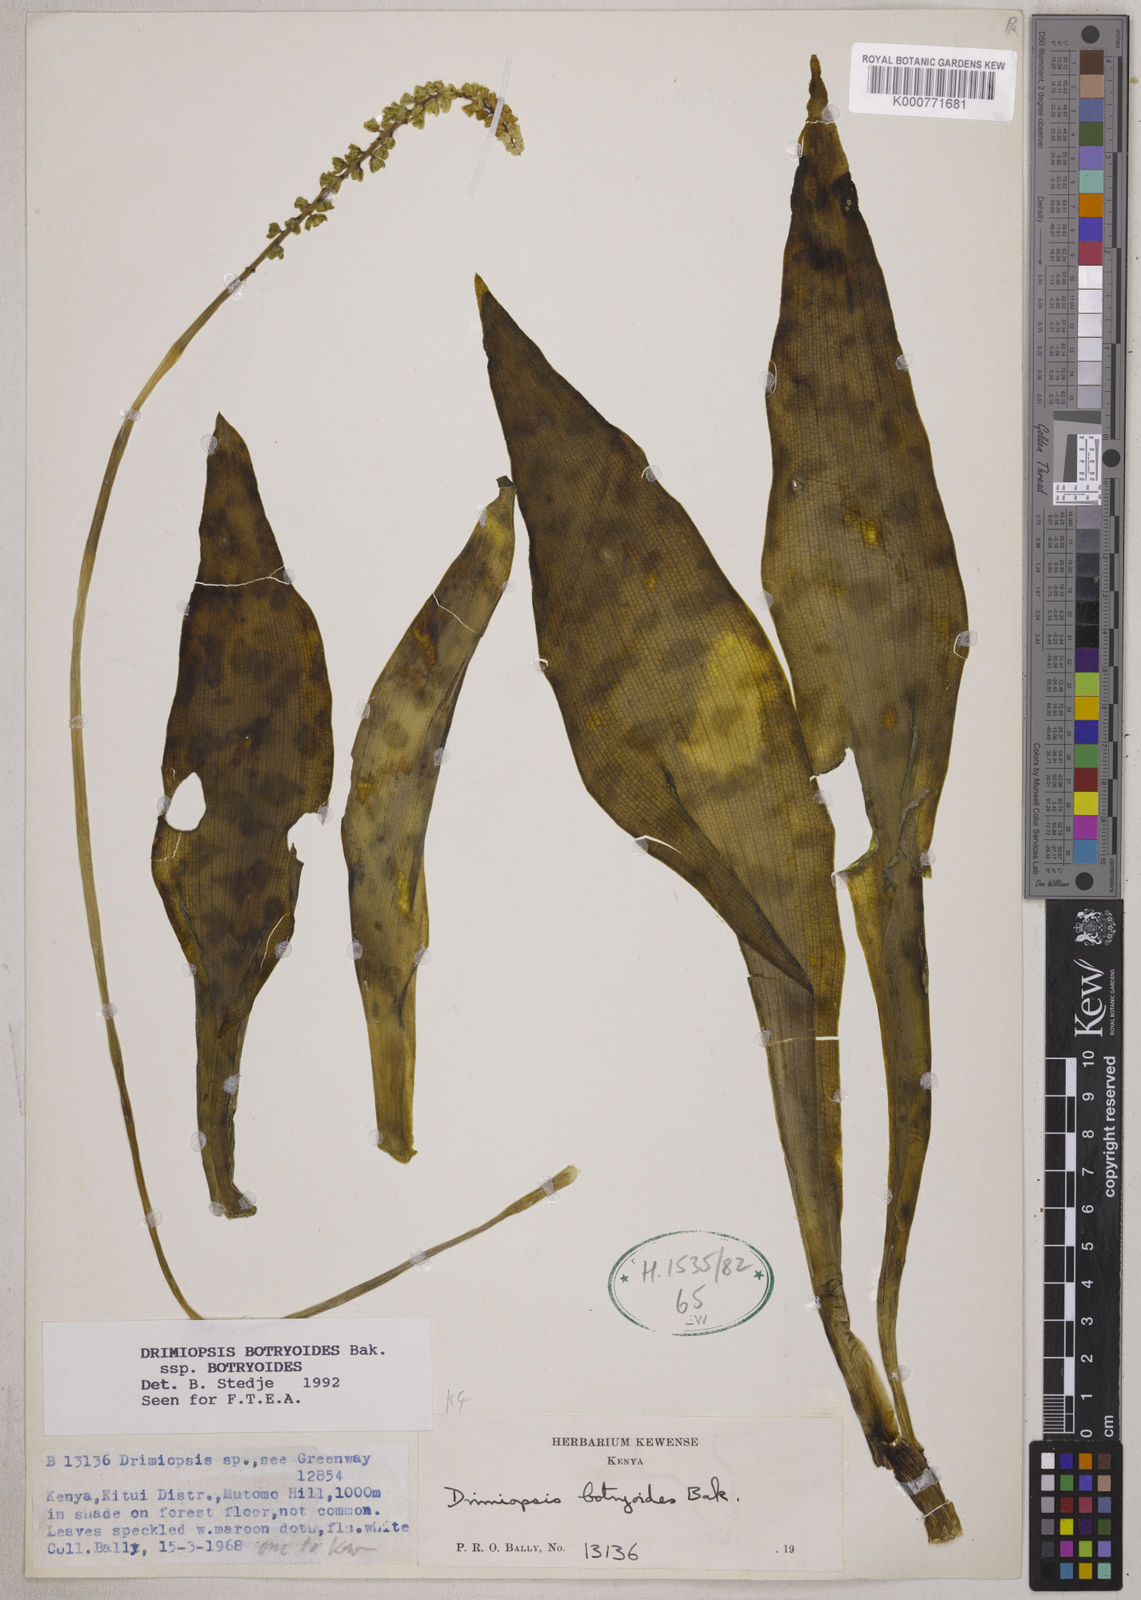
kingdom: Plantae
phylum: Tracheophyta
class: Liliopsida
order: Asparagales
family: Asparagaceae
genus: Drimiopsis
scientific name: Drimiopsis botryoides
